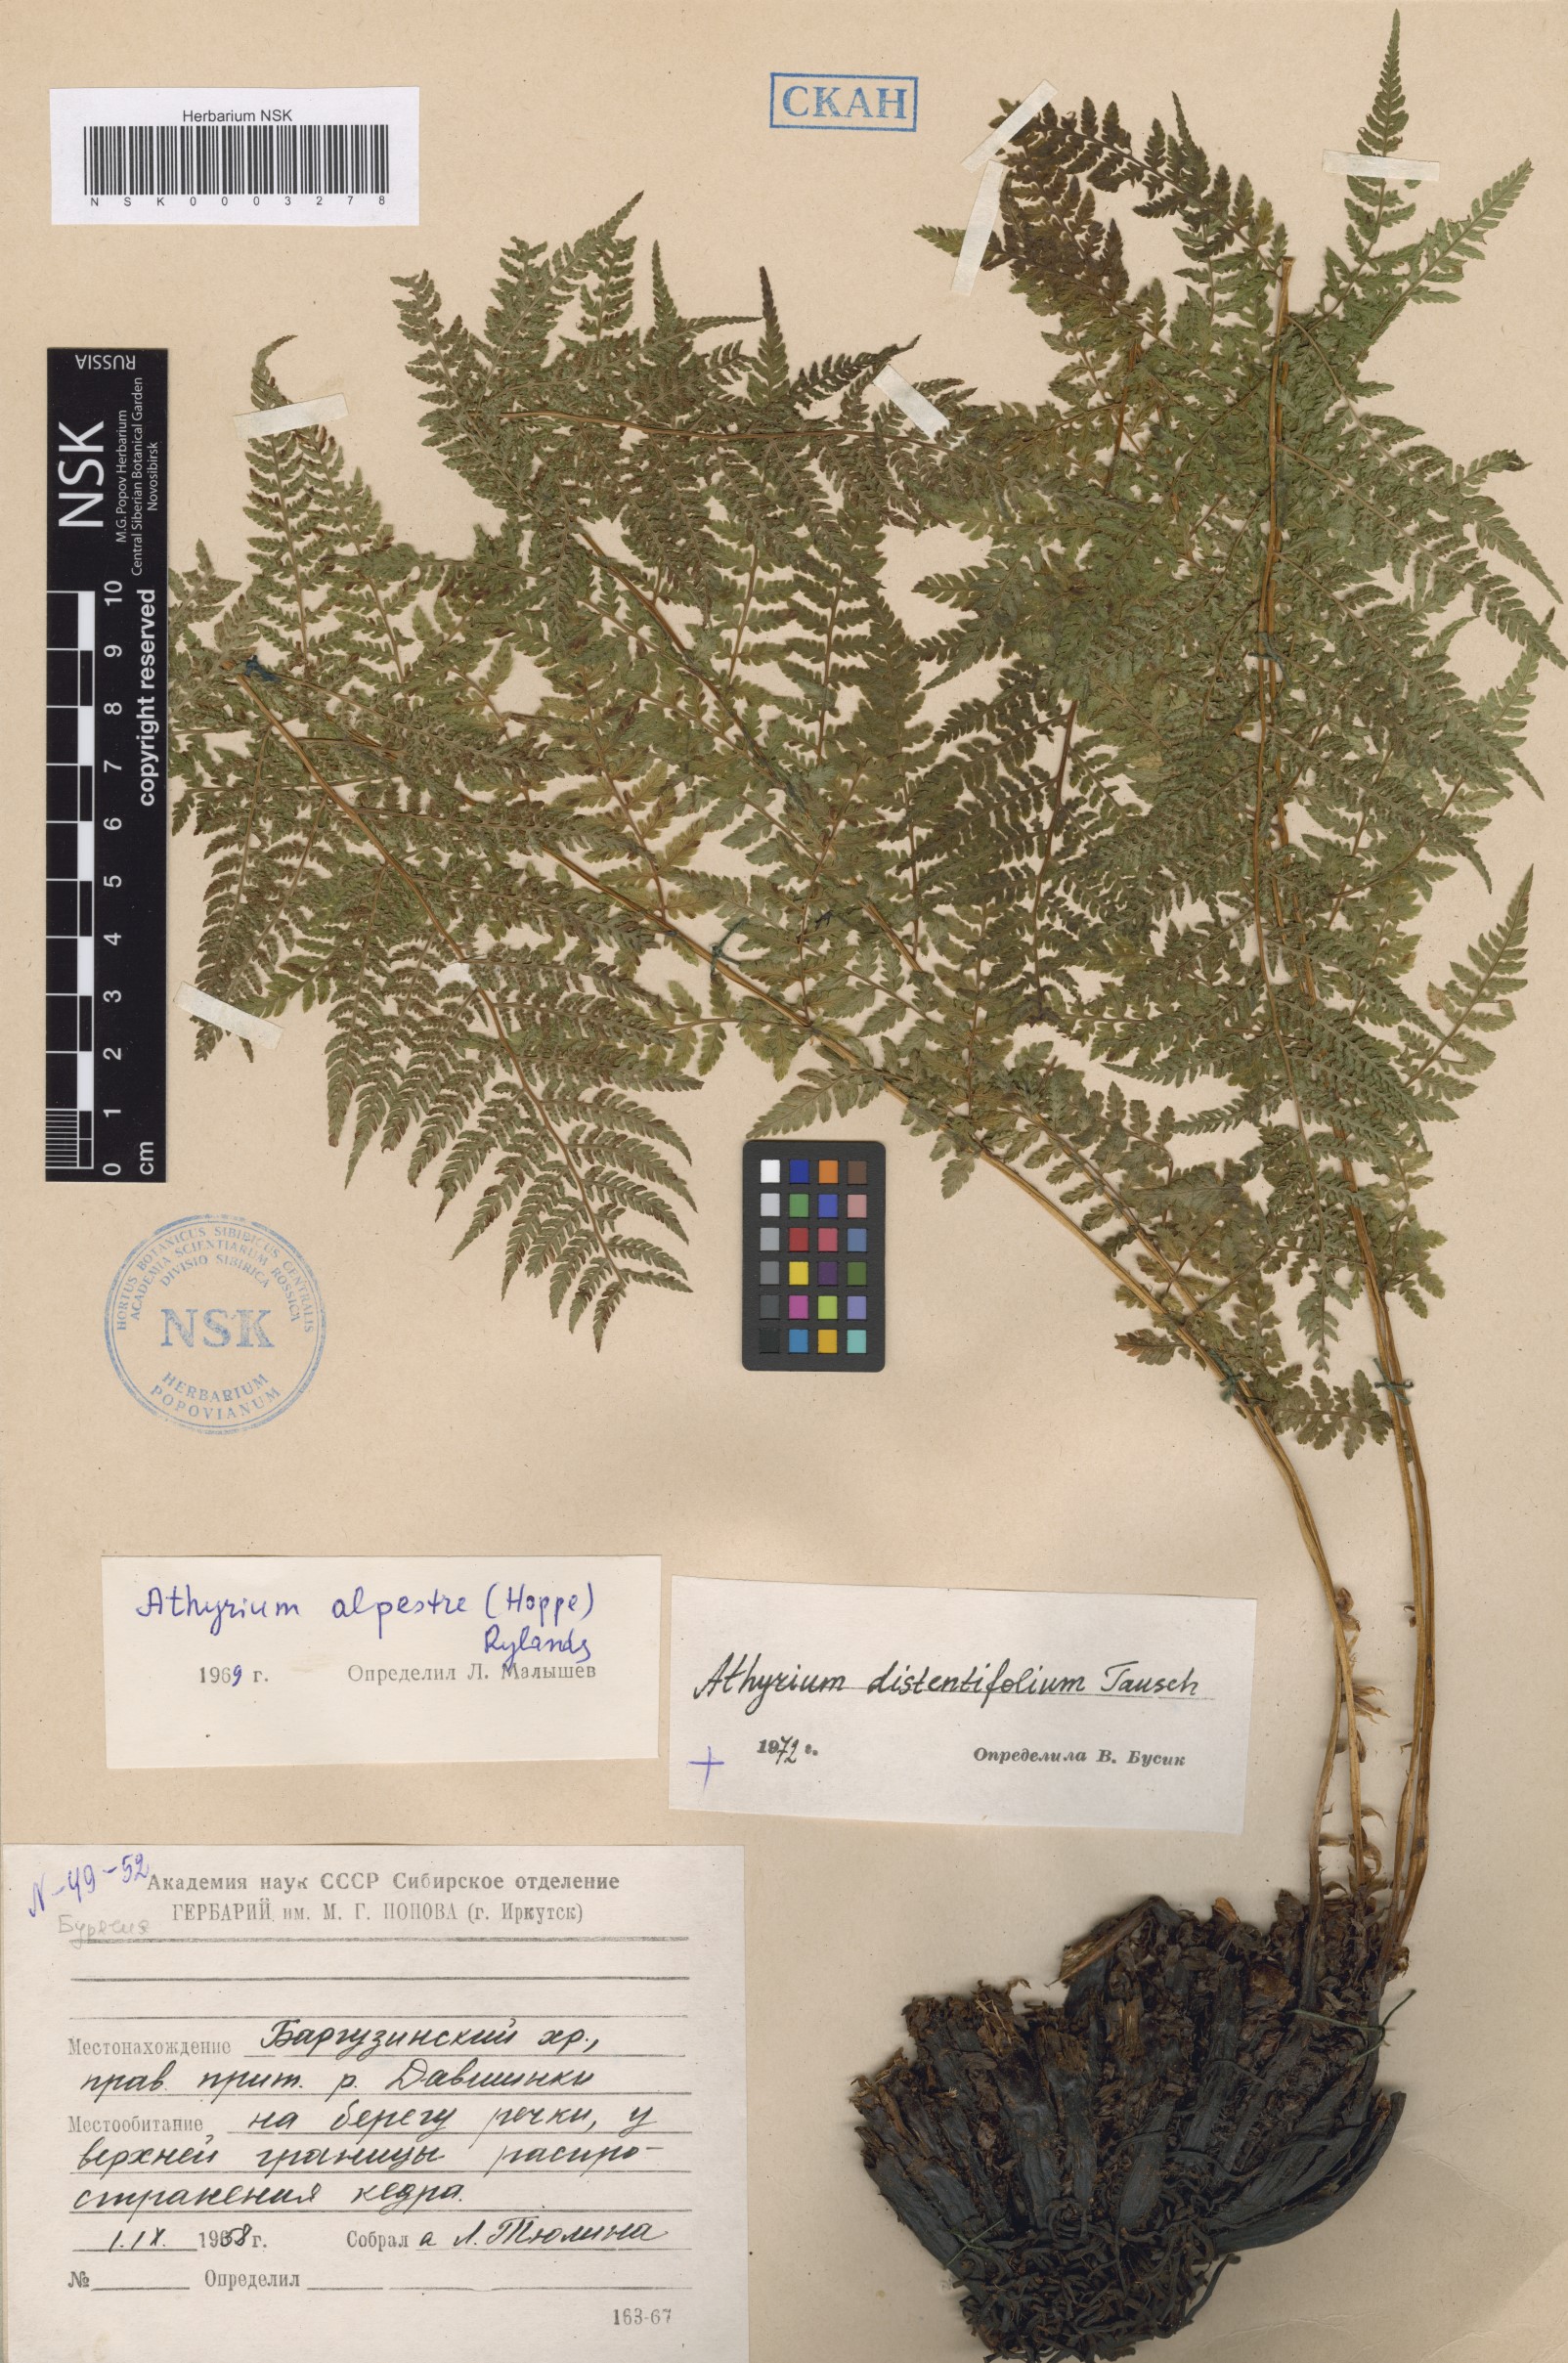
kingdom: Plantae
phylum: Tracheophyta
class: Polypodiopsida
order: Polypodiales
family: Athyriaceae
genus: Pseudathyrium
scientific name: Pseudathyrium alpestre
